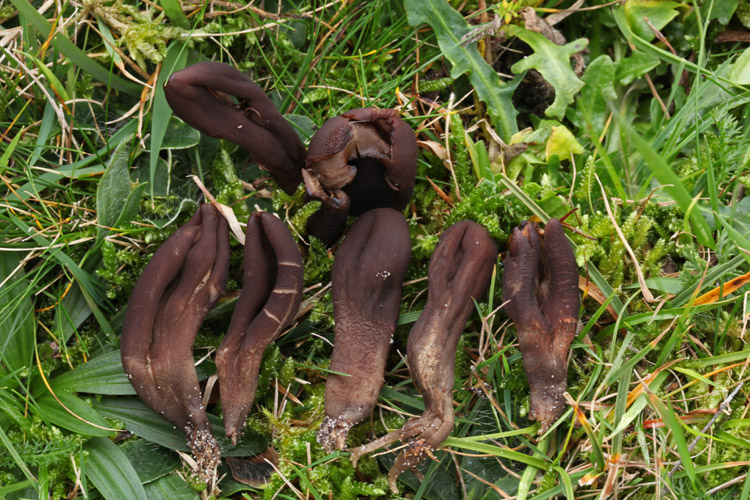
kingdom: Fungi
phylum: Ascomycota
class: Geoglossomycetes
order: Geoglossales
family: Geoglossaceae
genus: Geoglossum
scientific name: Geoglossum atropurpureum
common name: purpursort farvetunge
